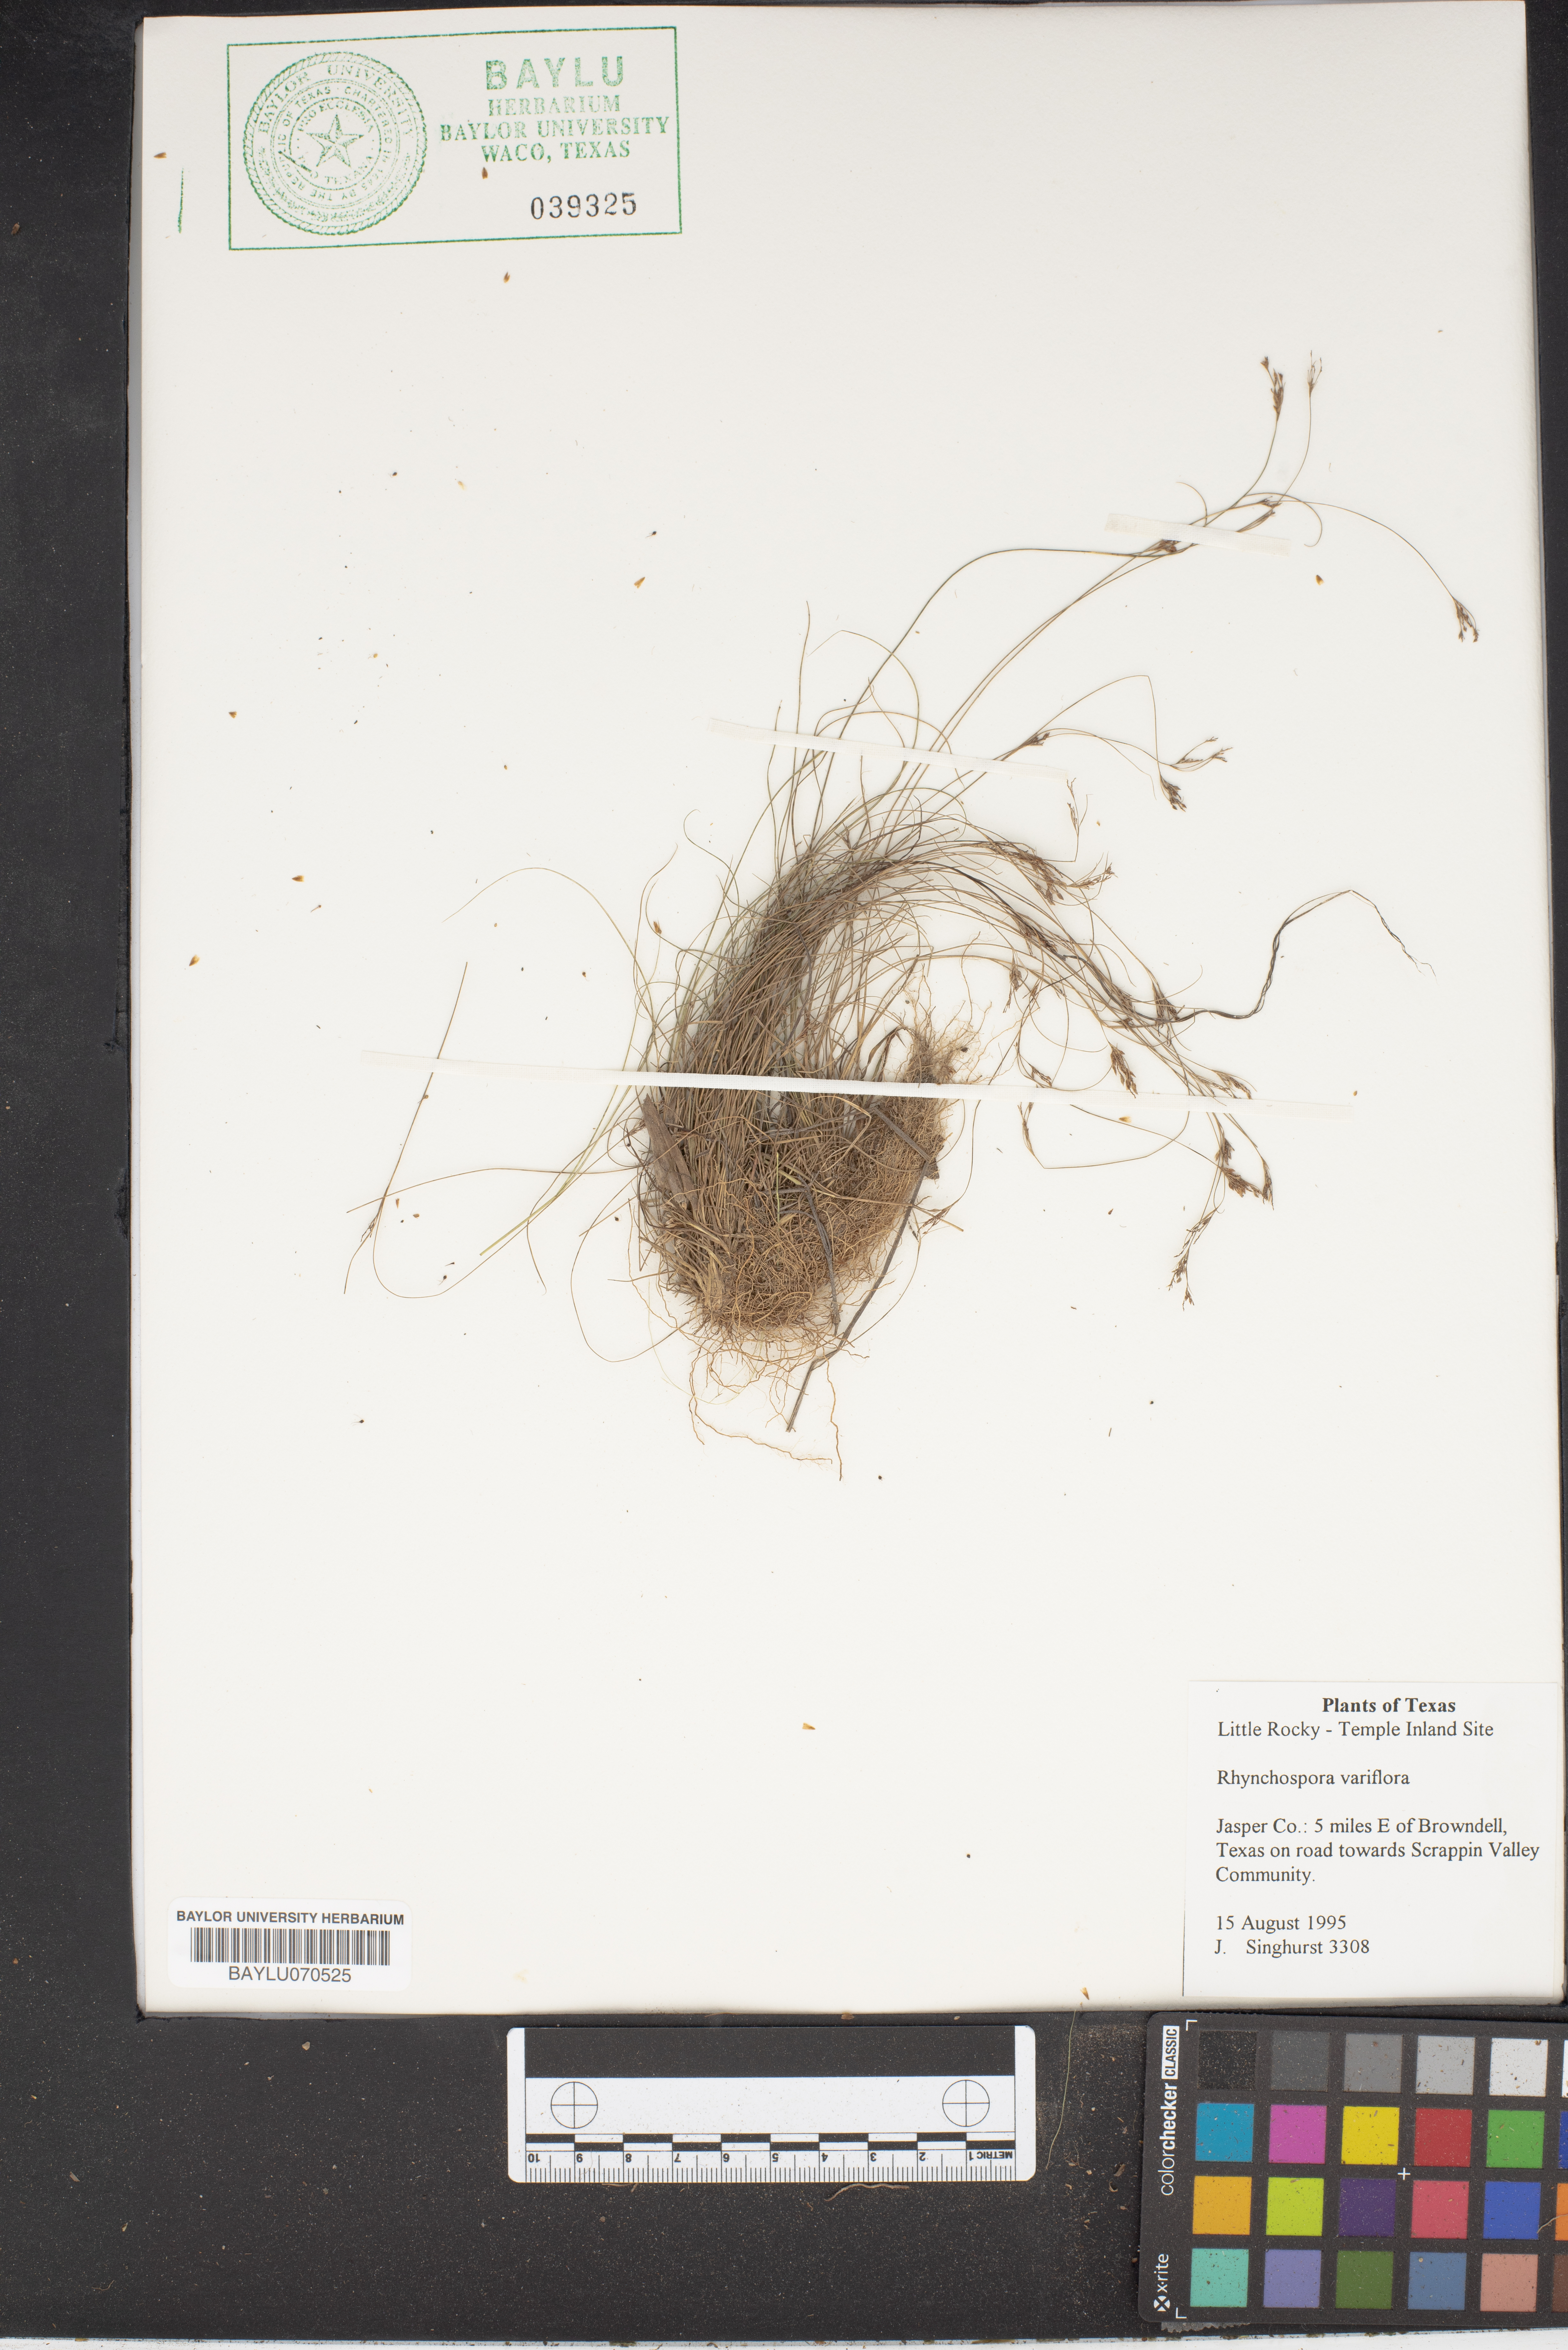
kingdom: Plantae
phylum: Tracheophyta
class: Liliopsida
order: Poales
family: Cyperaceae
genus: Rhynchospora
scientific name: Rhynchospora
